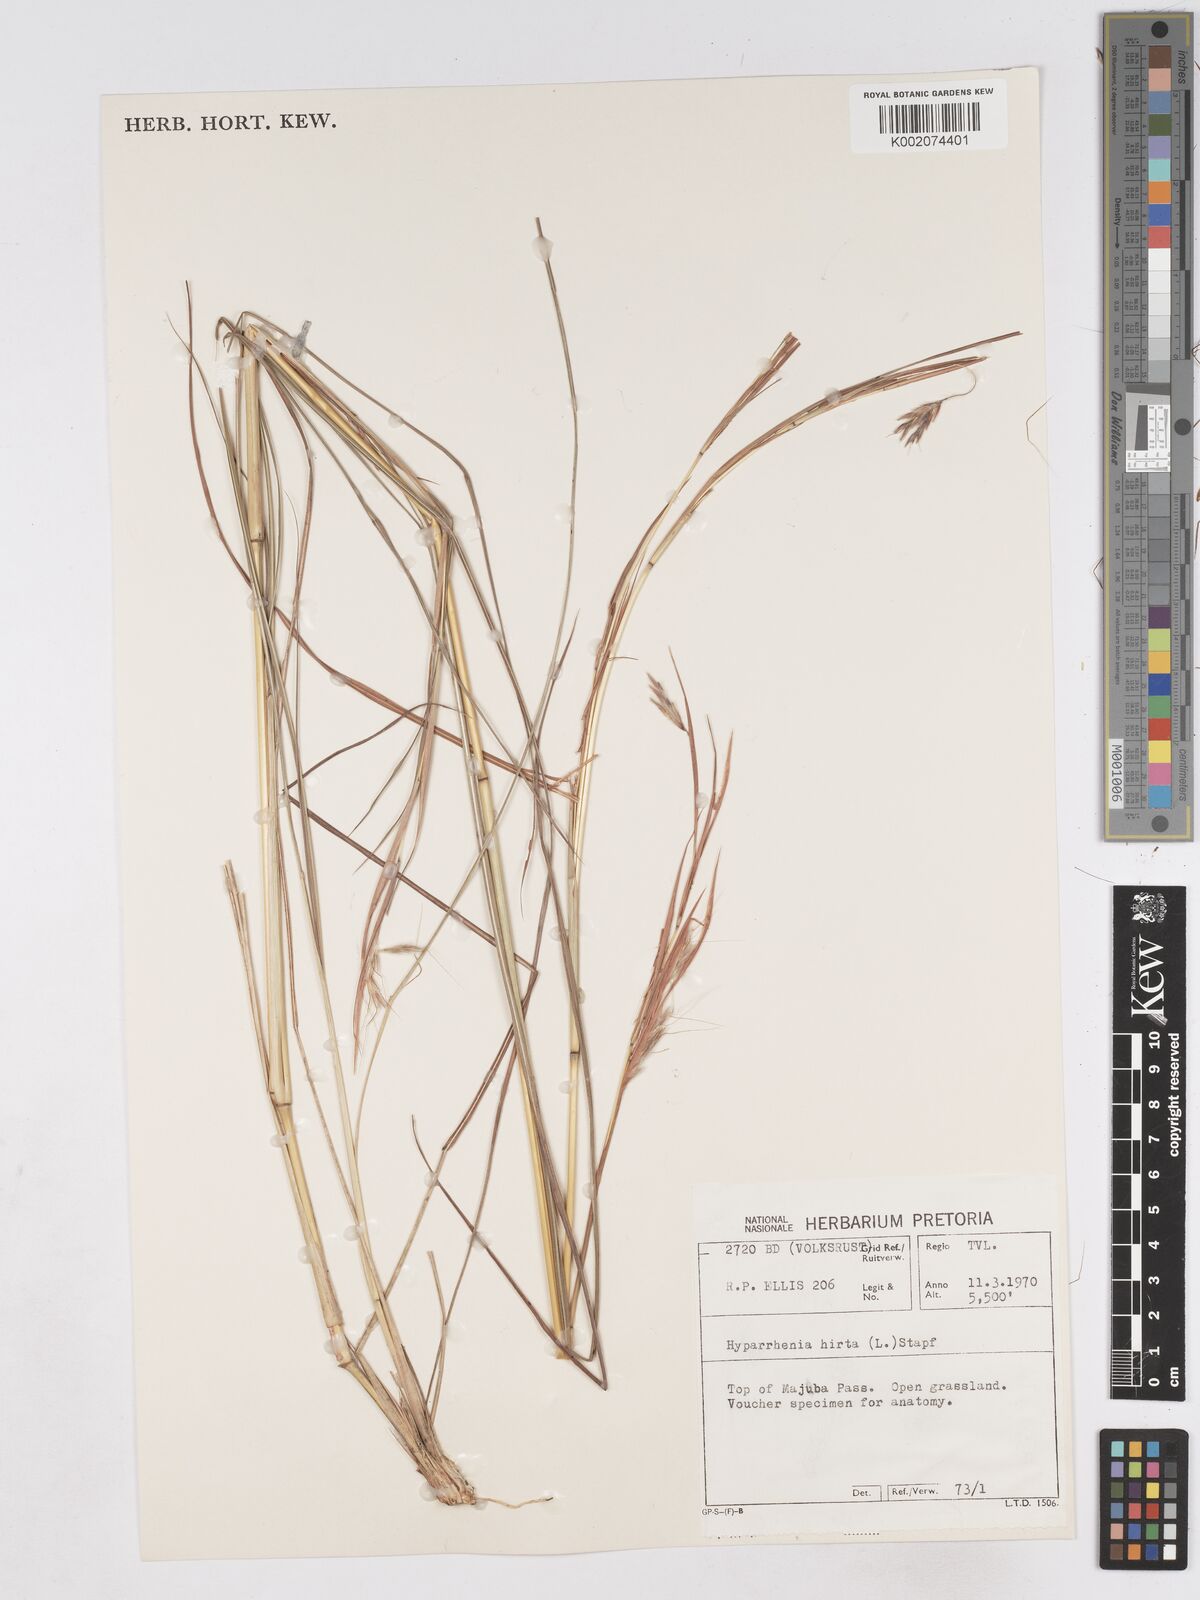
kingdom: Plantae
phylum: Tracheophyta
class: Liliopsida
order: Poales
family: Poaceae
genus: Hyparrhenia
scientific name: Hyparrhenia hirta
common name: Thatching grass
